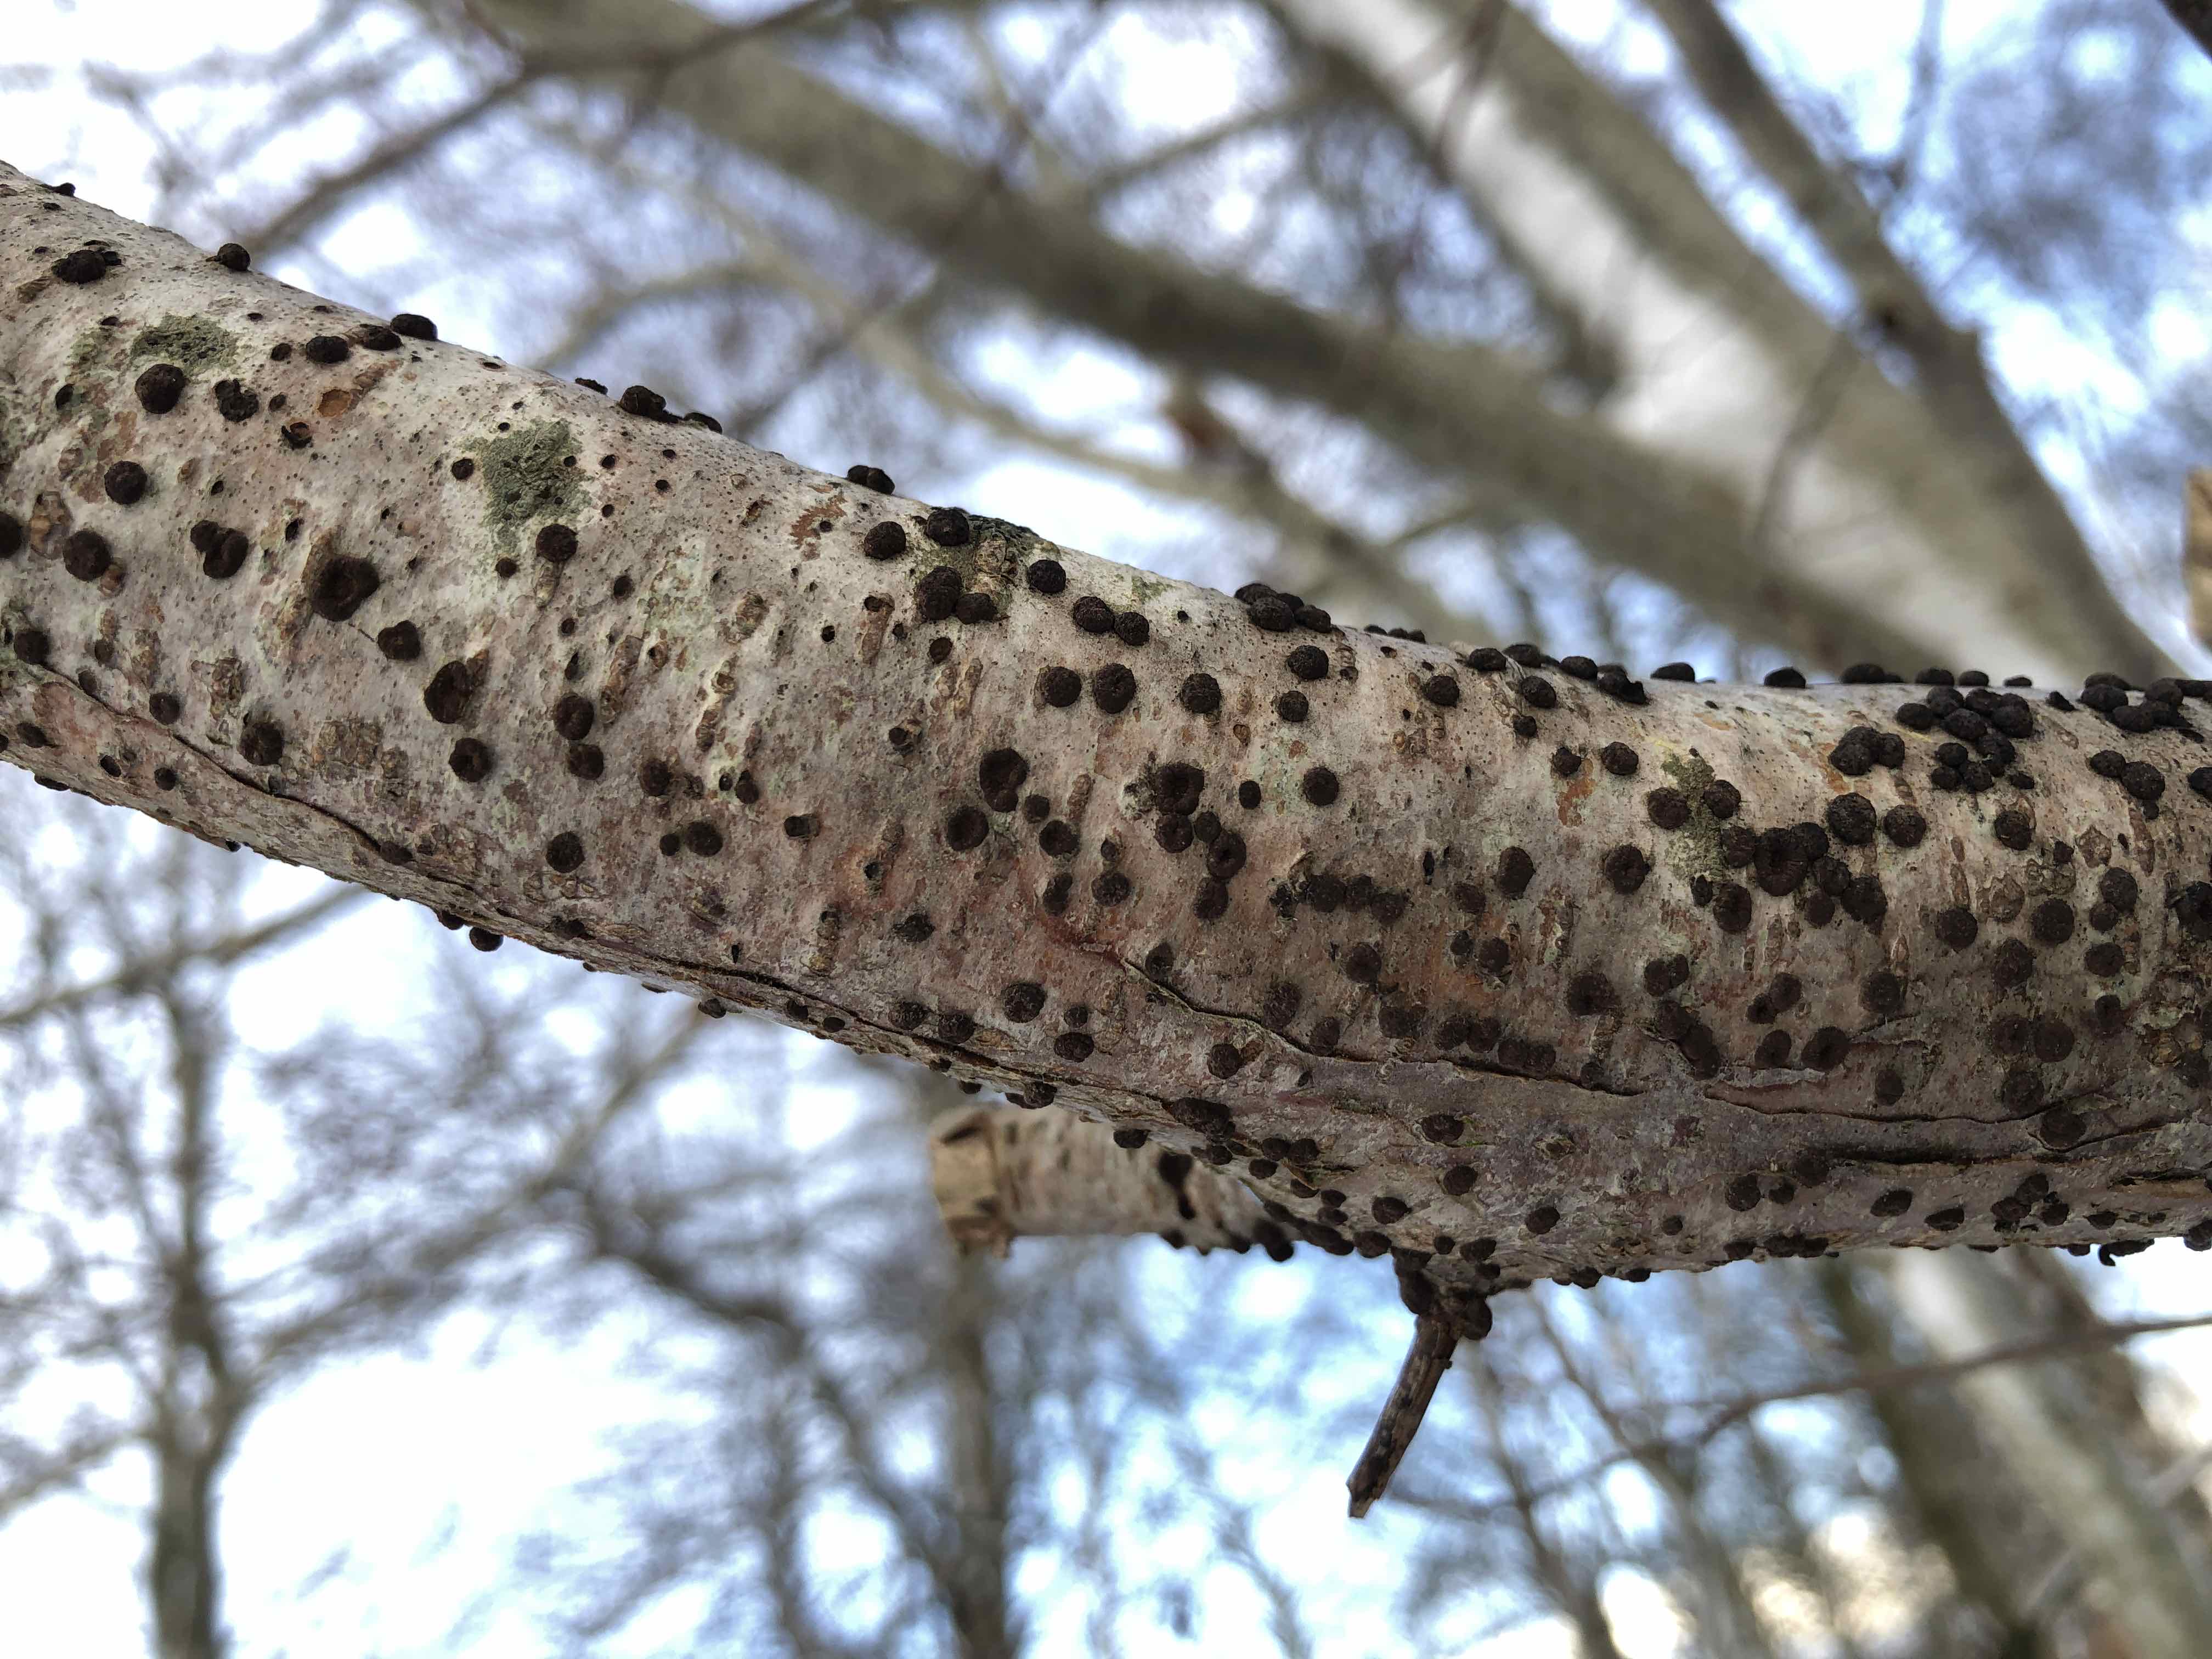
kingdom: Fungi
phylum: Ascomycota
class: Sordariomycetes
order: Xylariales
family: Hypoxylaceae
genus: Hypoxylon
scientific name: Hypoxylon fuscoides
